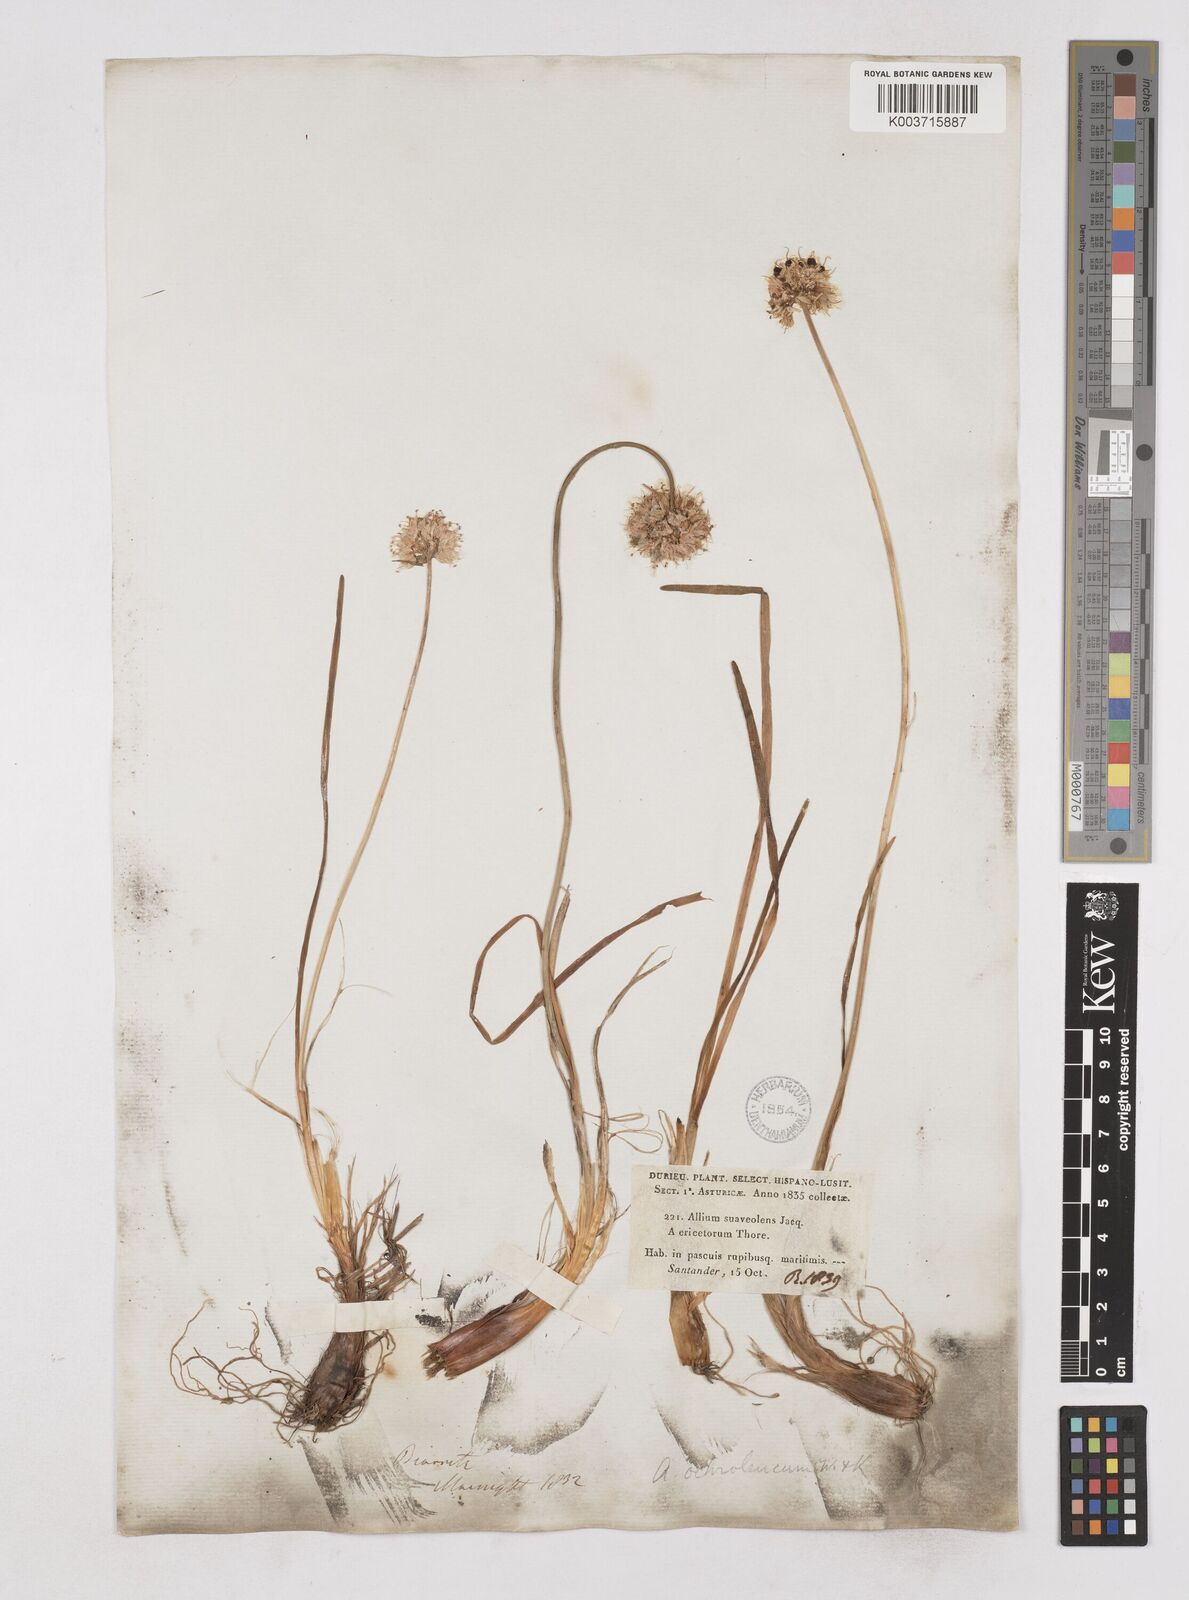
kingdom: Plantae
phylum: Tracheophyta
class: Liliopsida
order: Asparagales
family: Amaryllidaceae
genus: Allium
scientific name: Allium ericetorum
